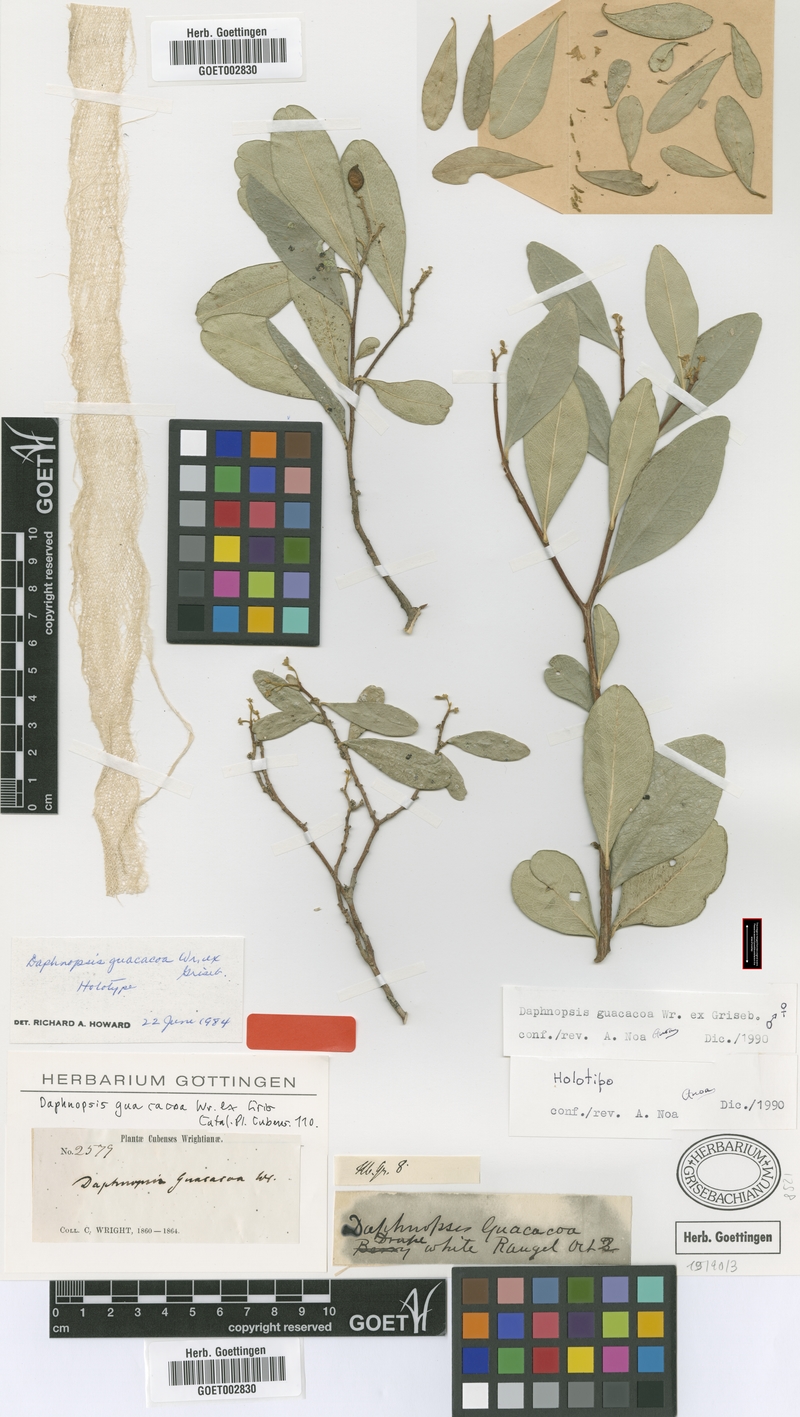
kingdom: Plantae
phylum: Tracheophyta
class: Magnoliopsida
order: Malvales
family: Thymelaeaceae
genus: Daphnopsis
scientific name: Daphnopsis guacacoa
